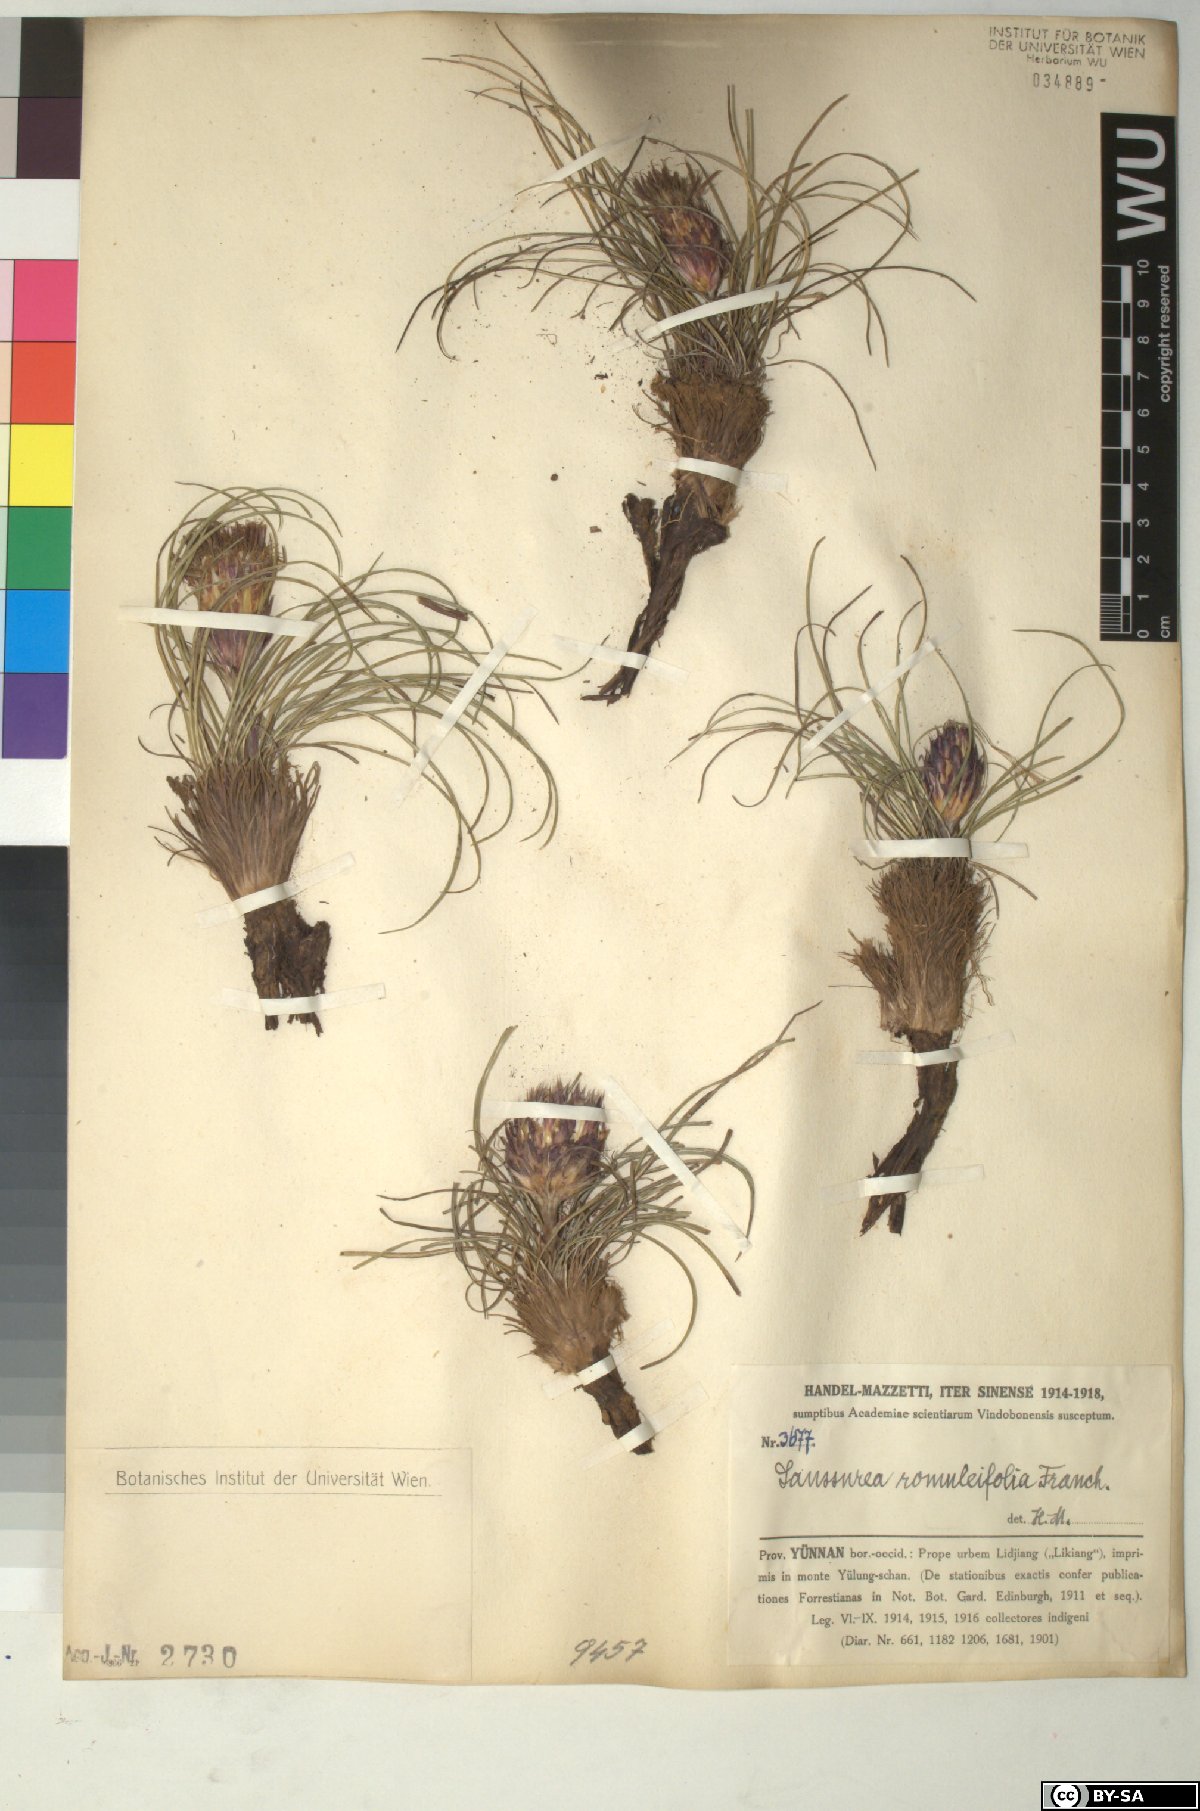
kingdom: Plantae
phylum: Tracheophyta
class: Magnoliopsida
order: Asterales
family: Asteraceae
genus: Saussurea
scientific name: Saussurea romuleifolia
